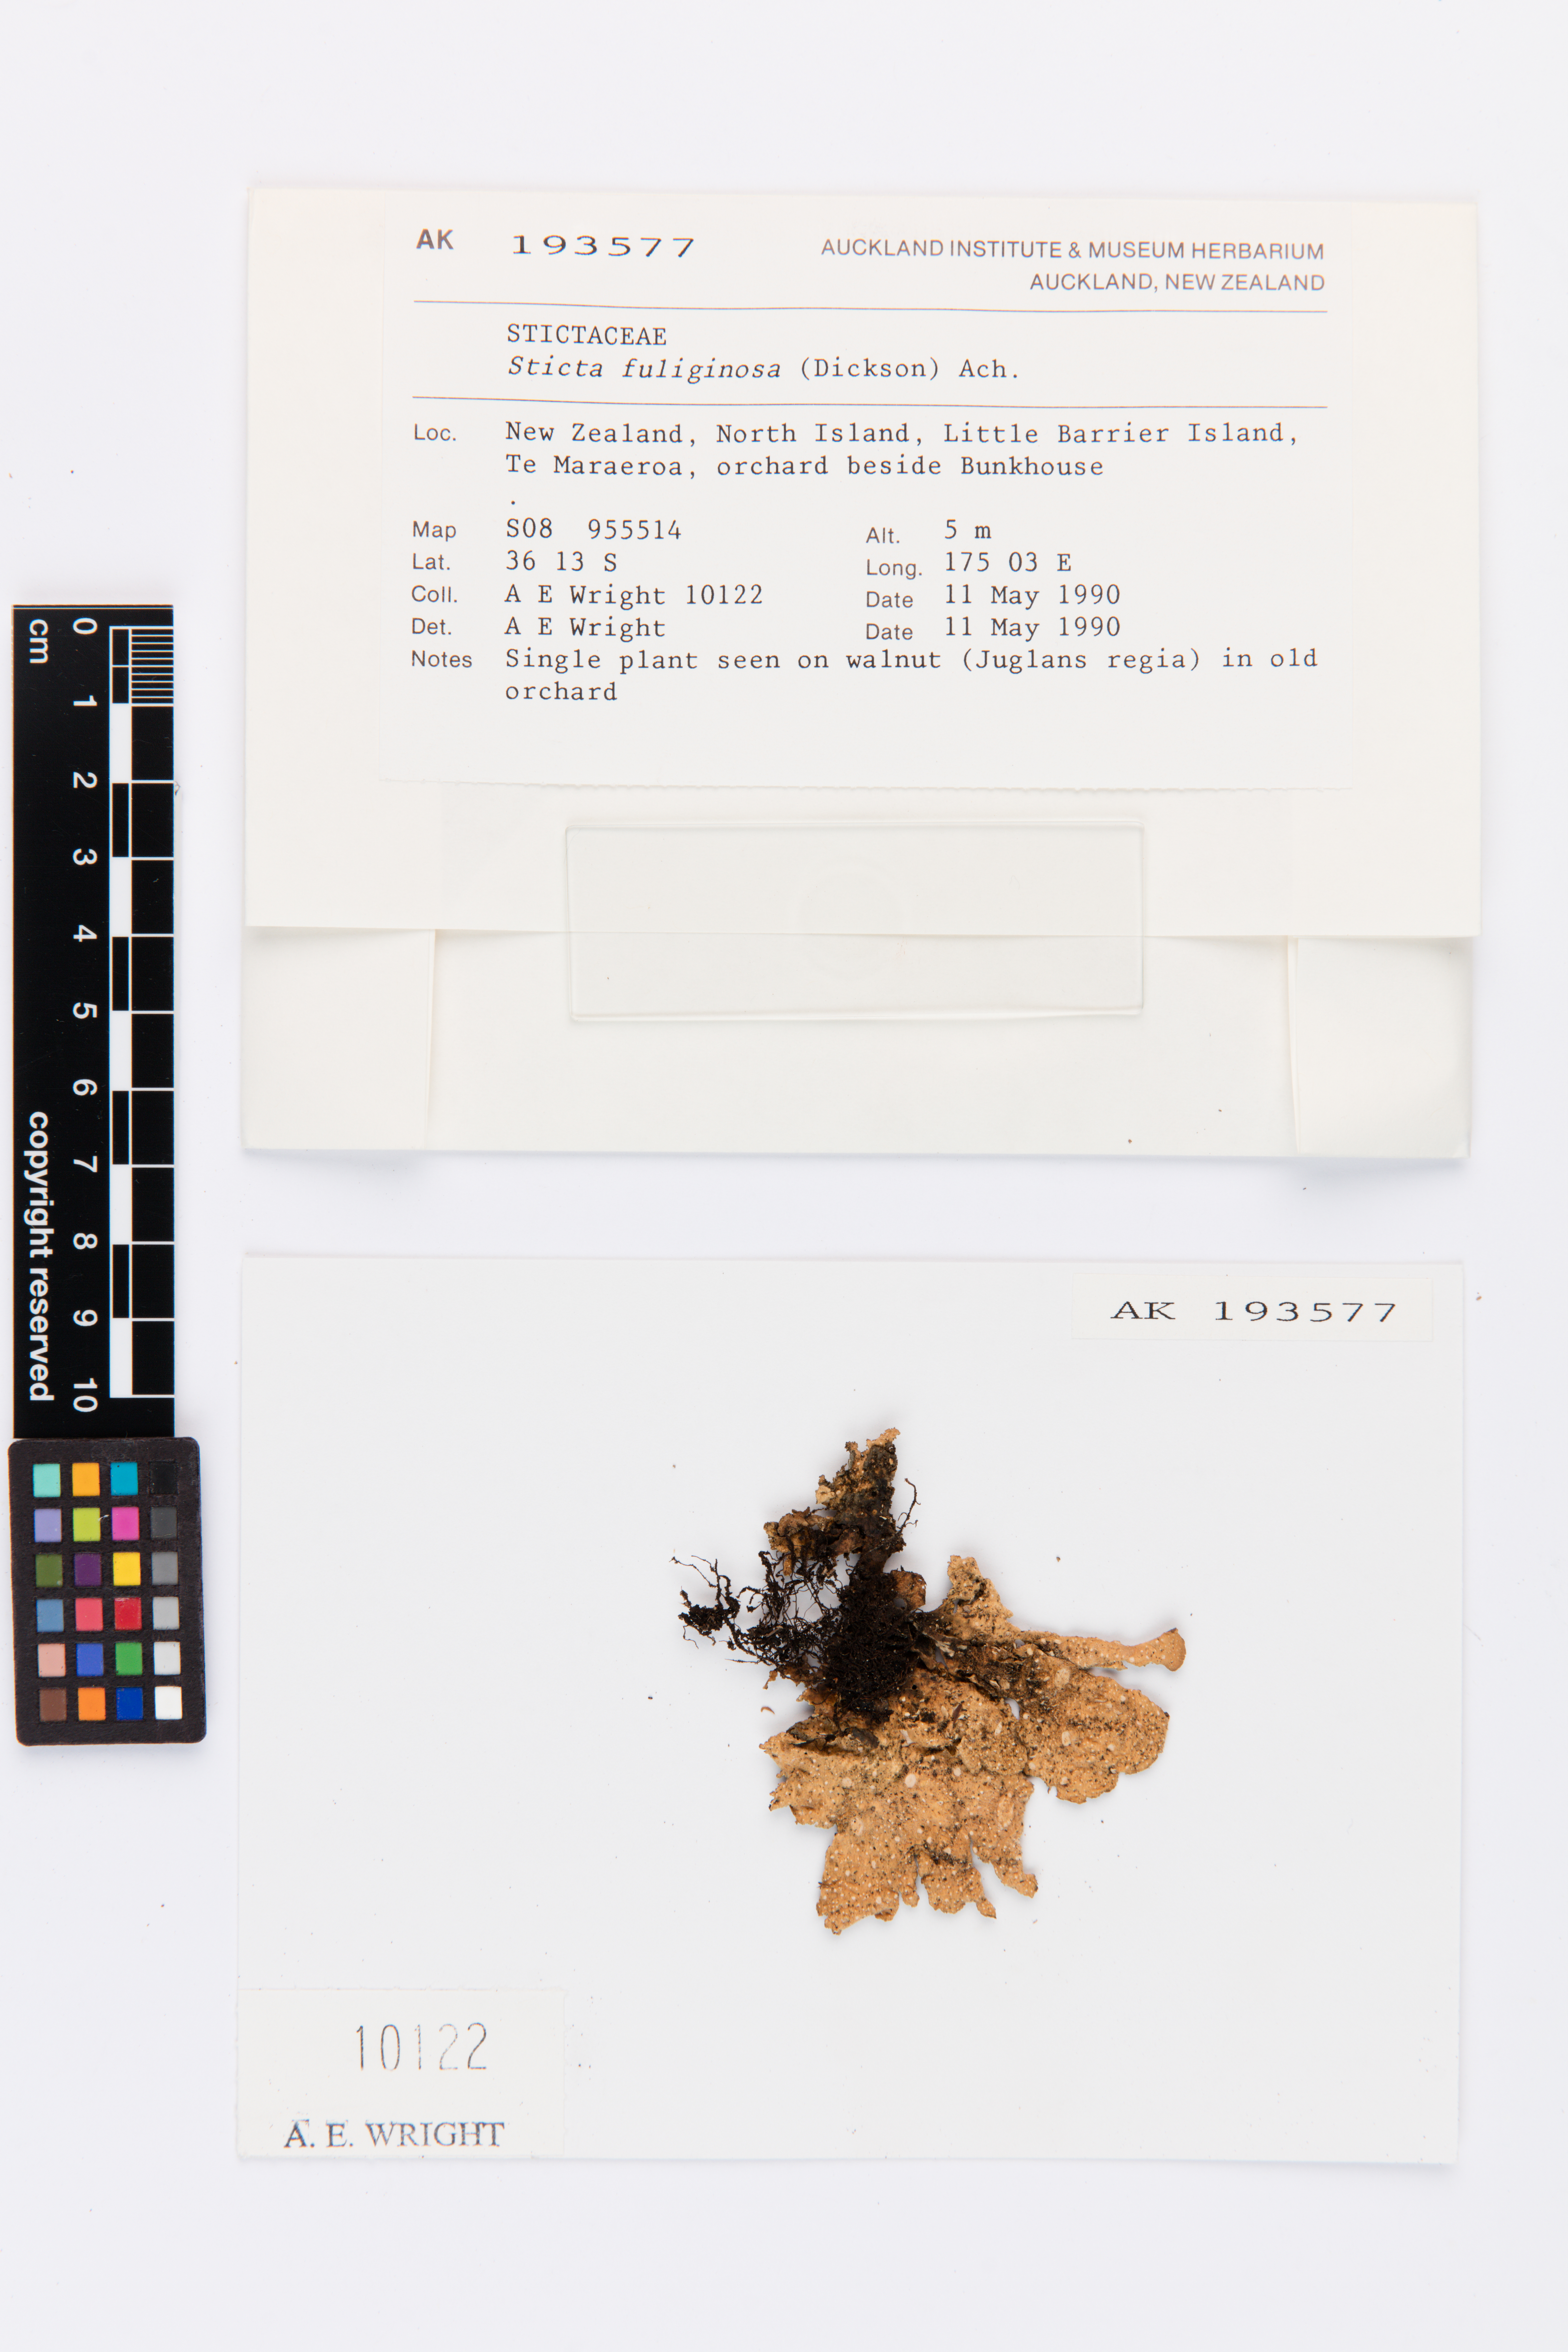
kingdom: Fungi
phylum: Ascomycota
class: Lecanoromycetes
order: Peltigerales
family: Lobariaceae
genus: Sticta
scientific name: Sticta fuliginosa
